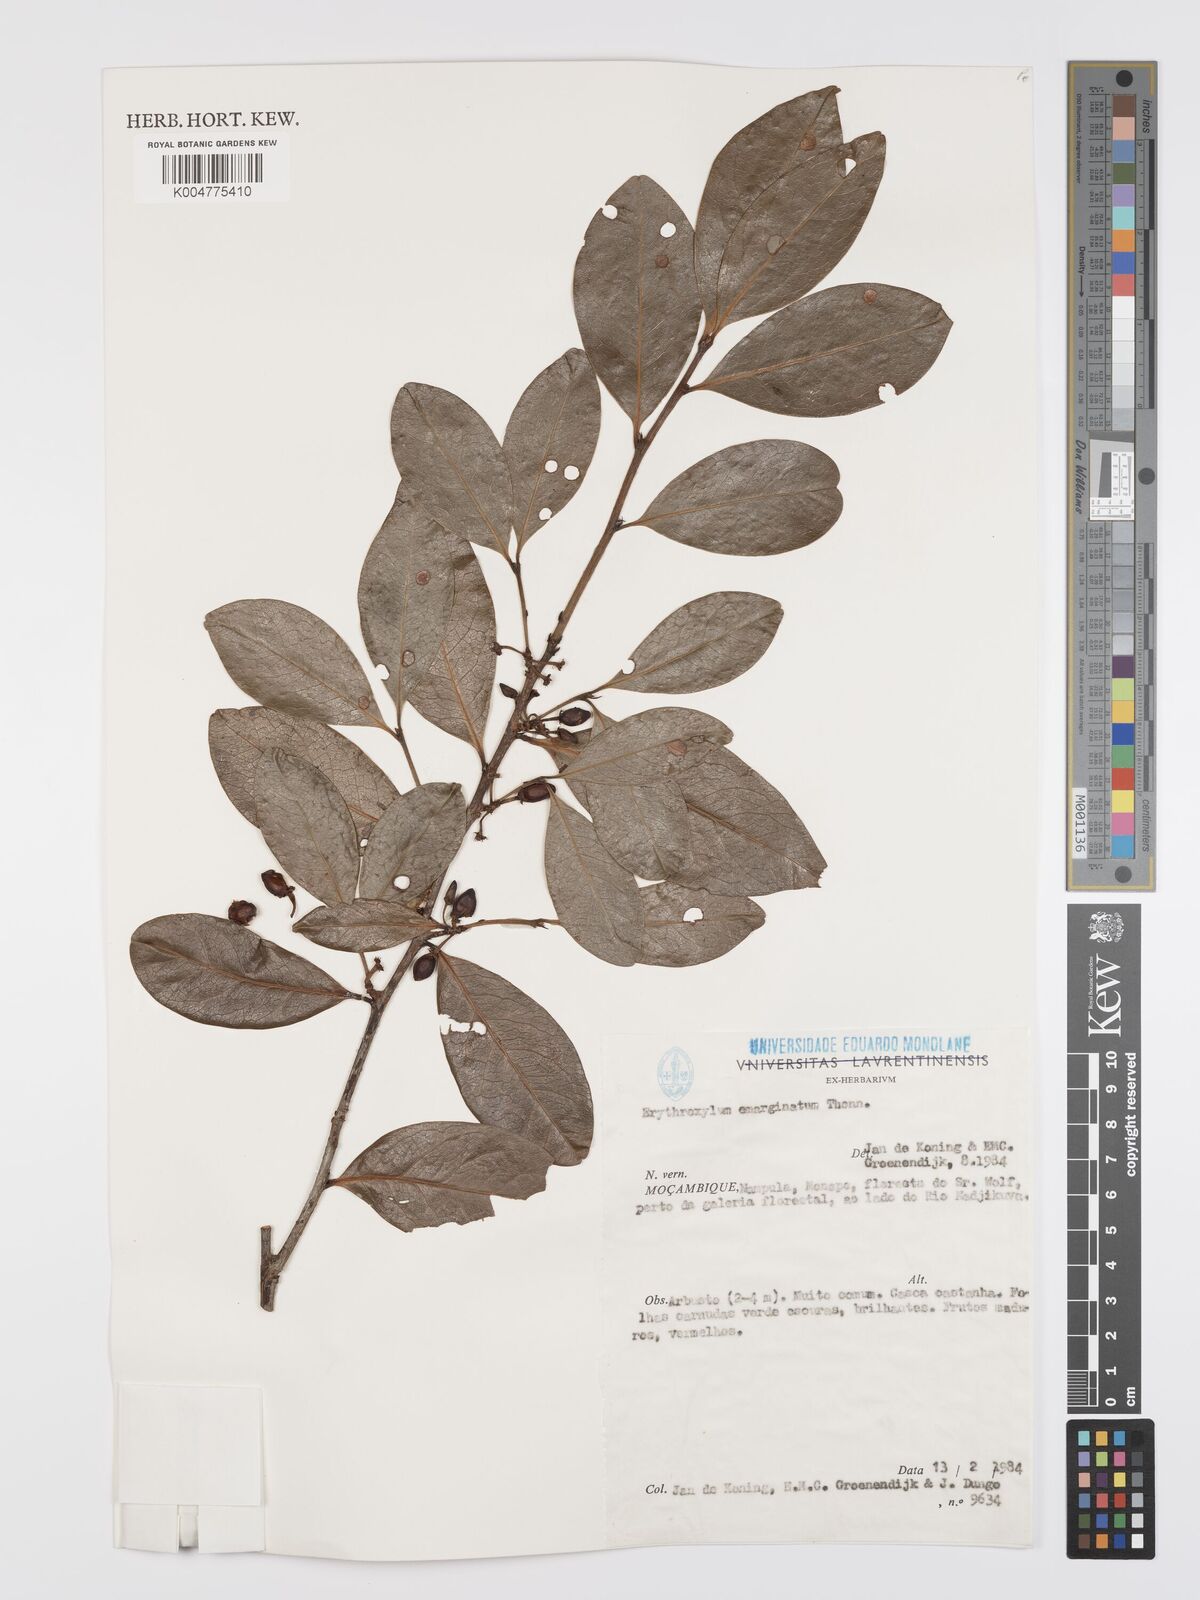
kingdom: Plantae
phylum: Tracheophyta
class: Magnoliopsida
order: Malpighiales
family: Erythroxylaceae
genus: Erythroxylum
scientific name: Erythroxylum emarginatum
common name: African coca-tree
